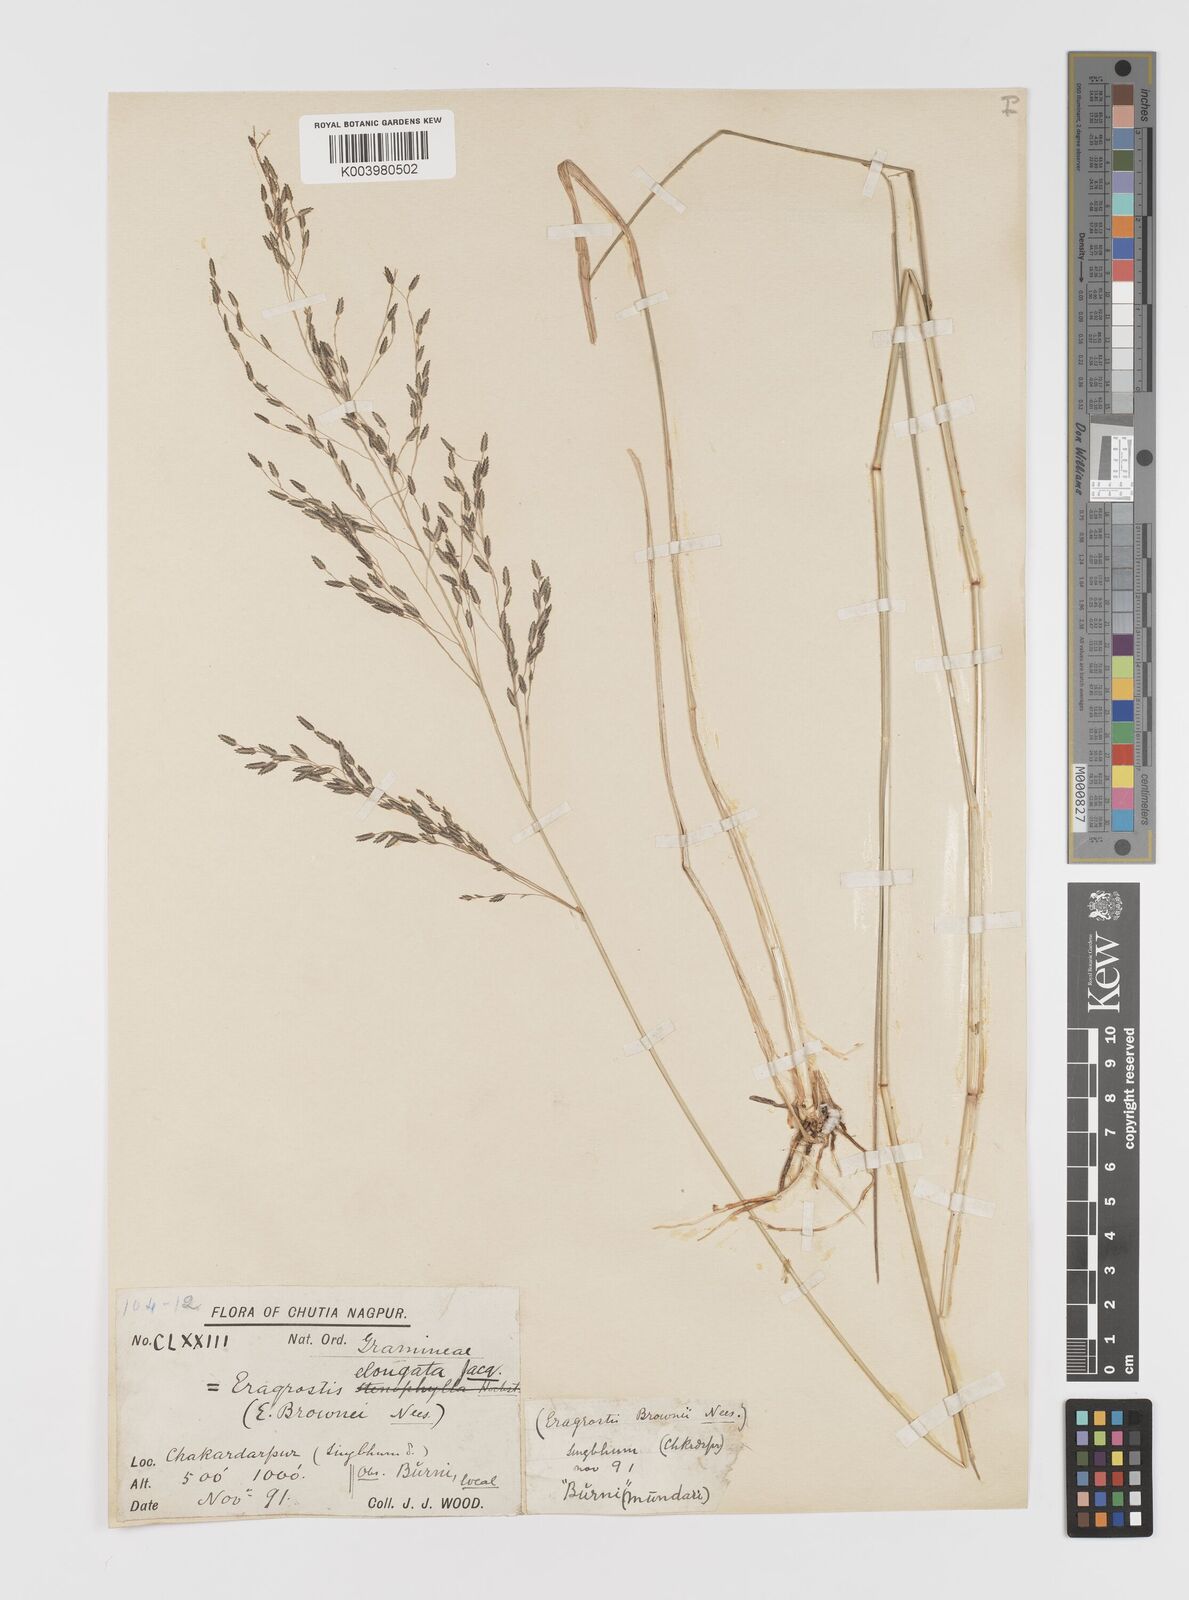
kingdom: Plantae
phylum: Tracheophyta
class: Liliopsida
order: Poales
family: Poaceae
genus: Eragrostis
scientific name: Eragrostis
